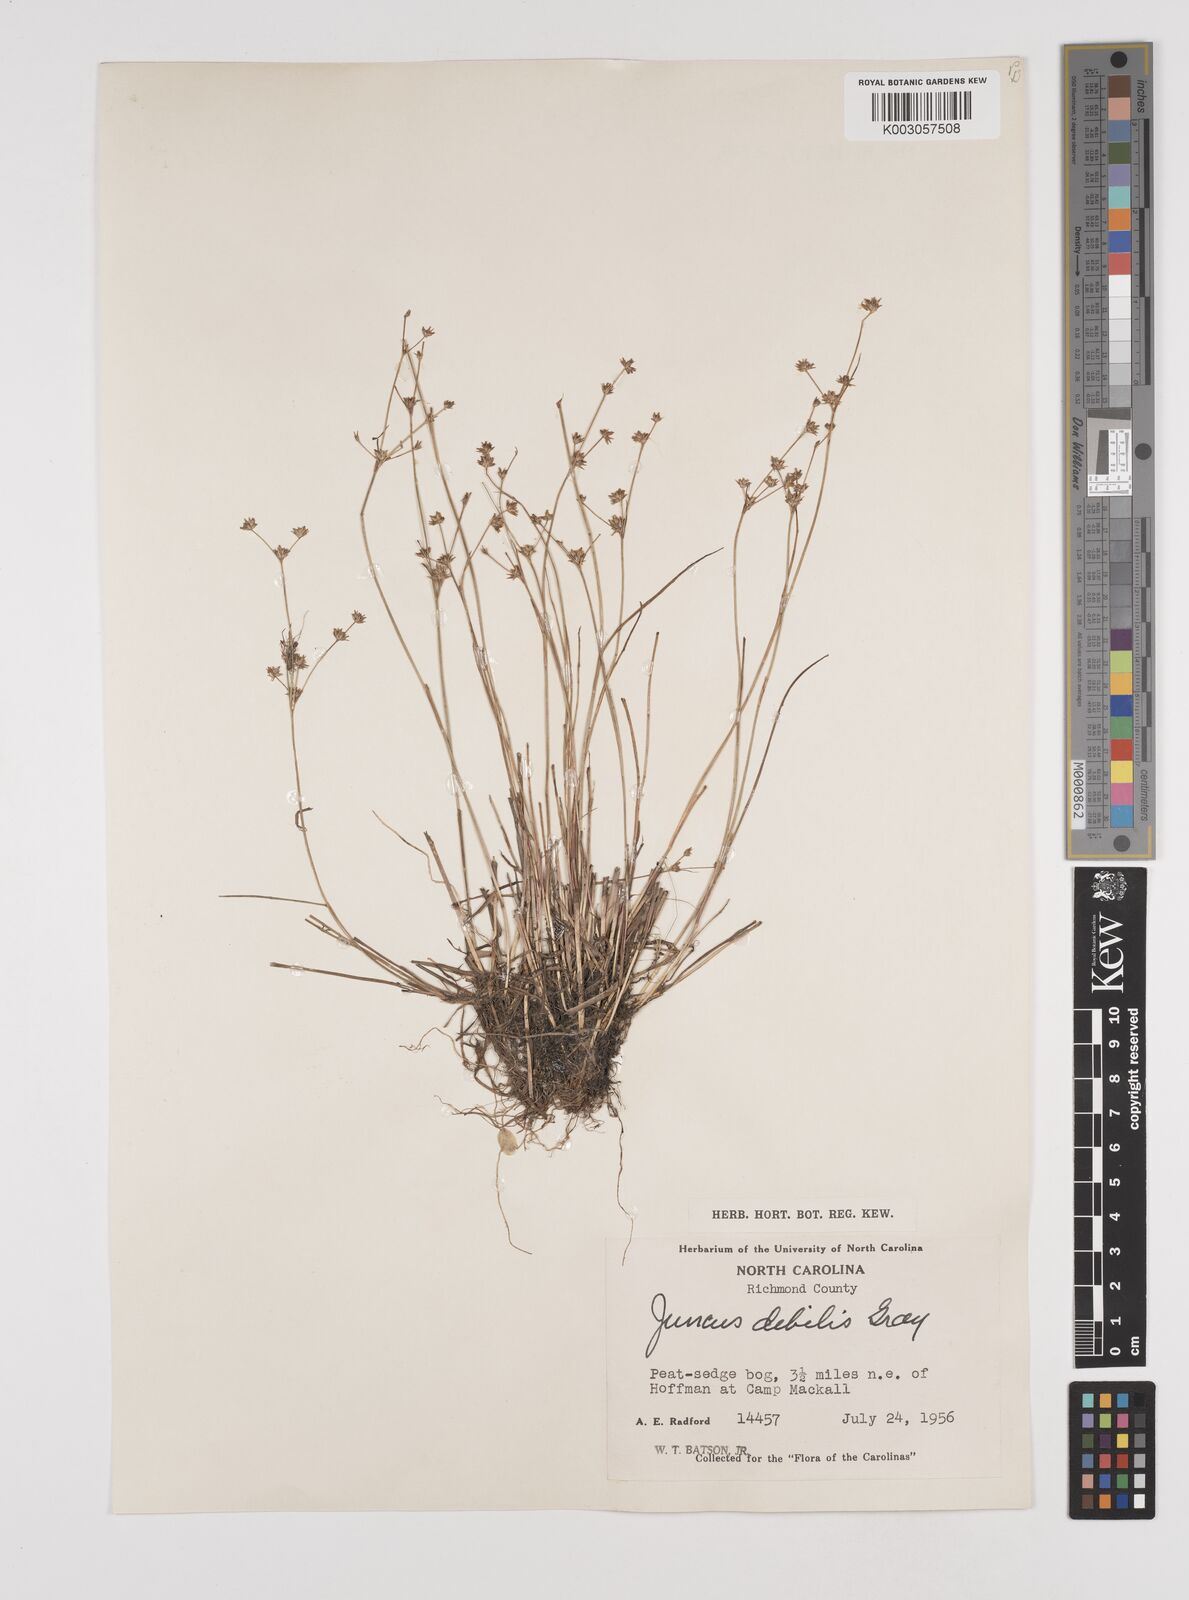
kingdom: Plantae
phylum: Tracheophyta
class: Liliopsida
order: Poales
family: Juncaceae
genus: Juncus
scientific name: Juncus debilis
